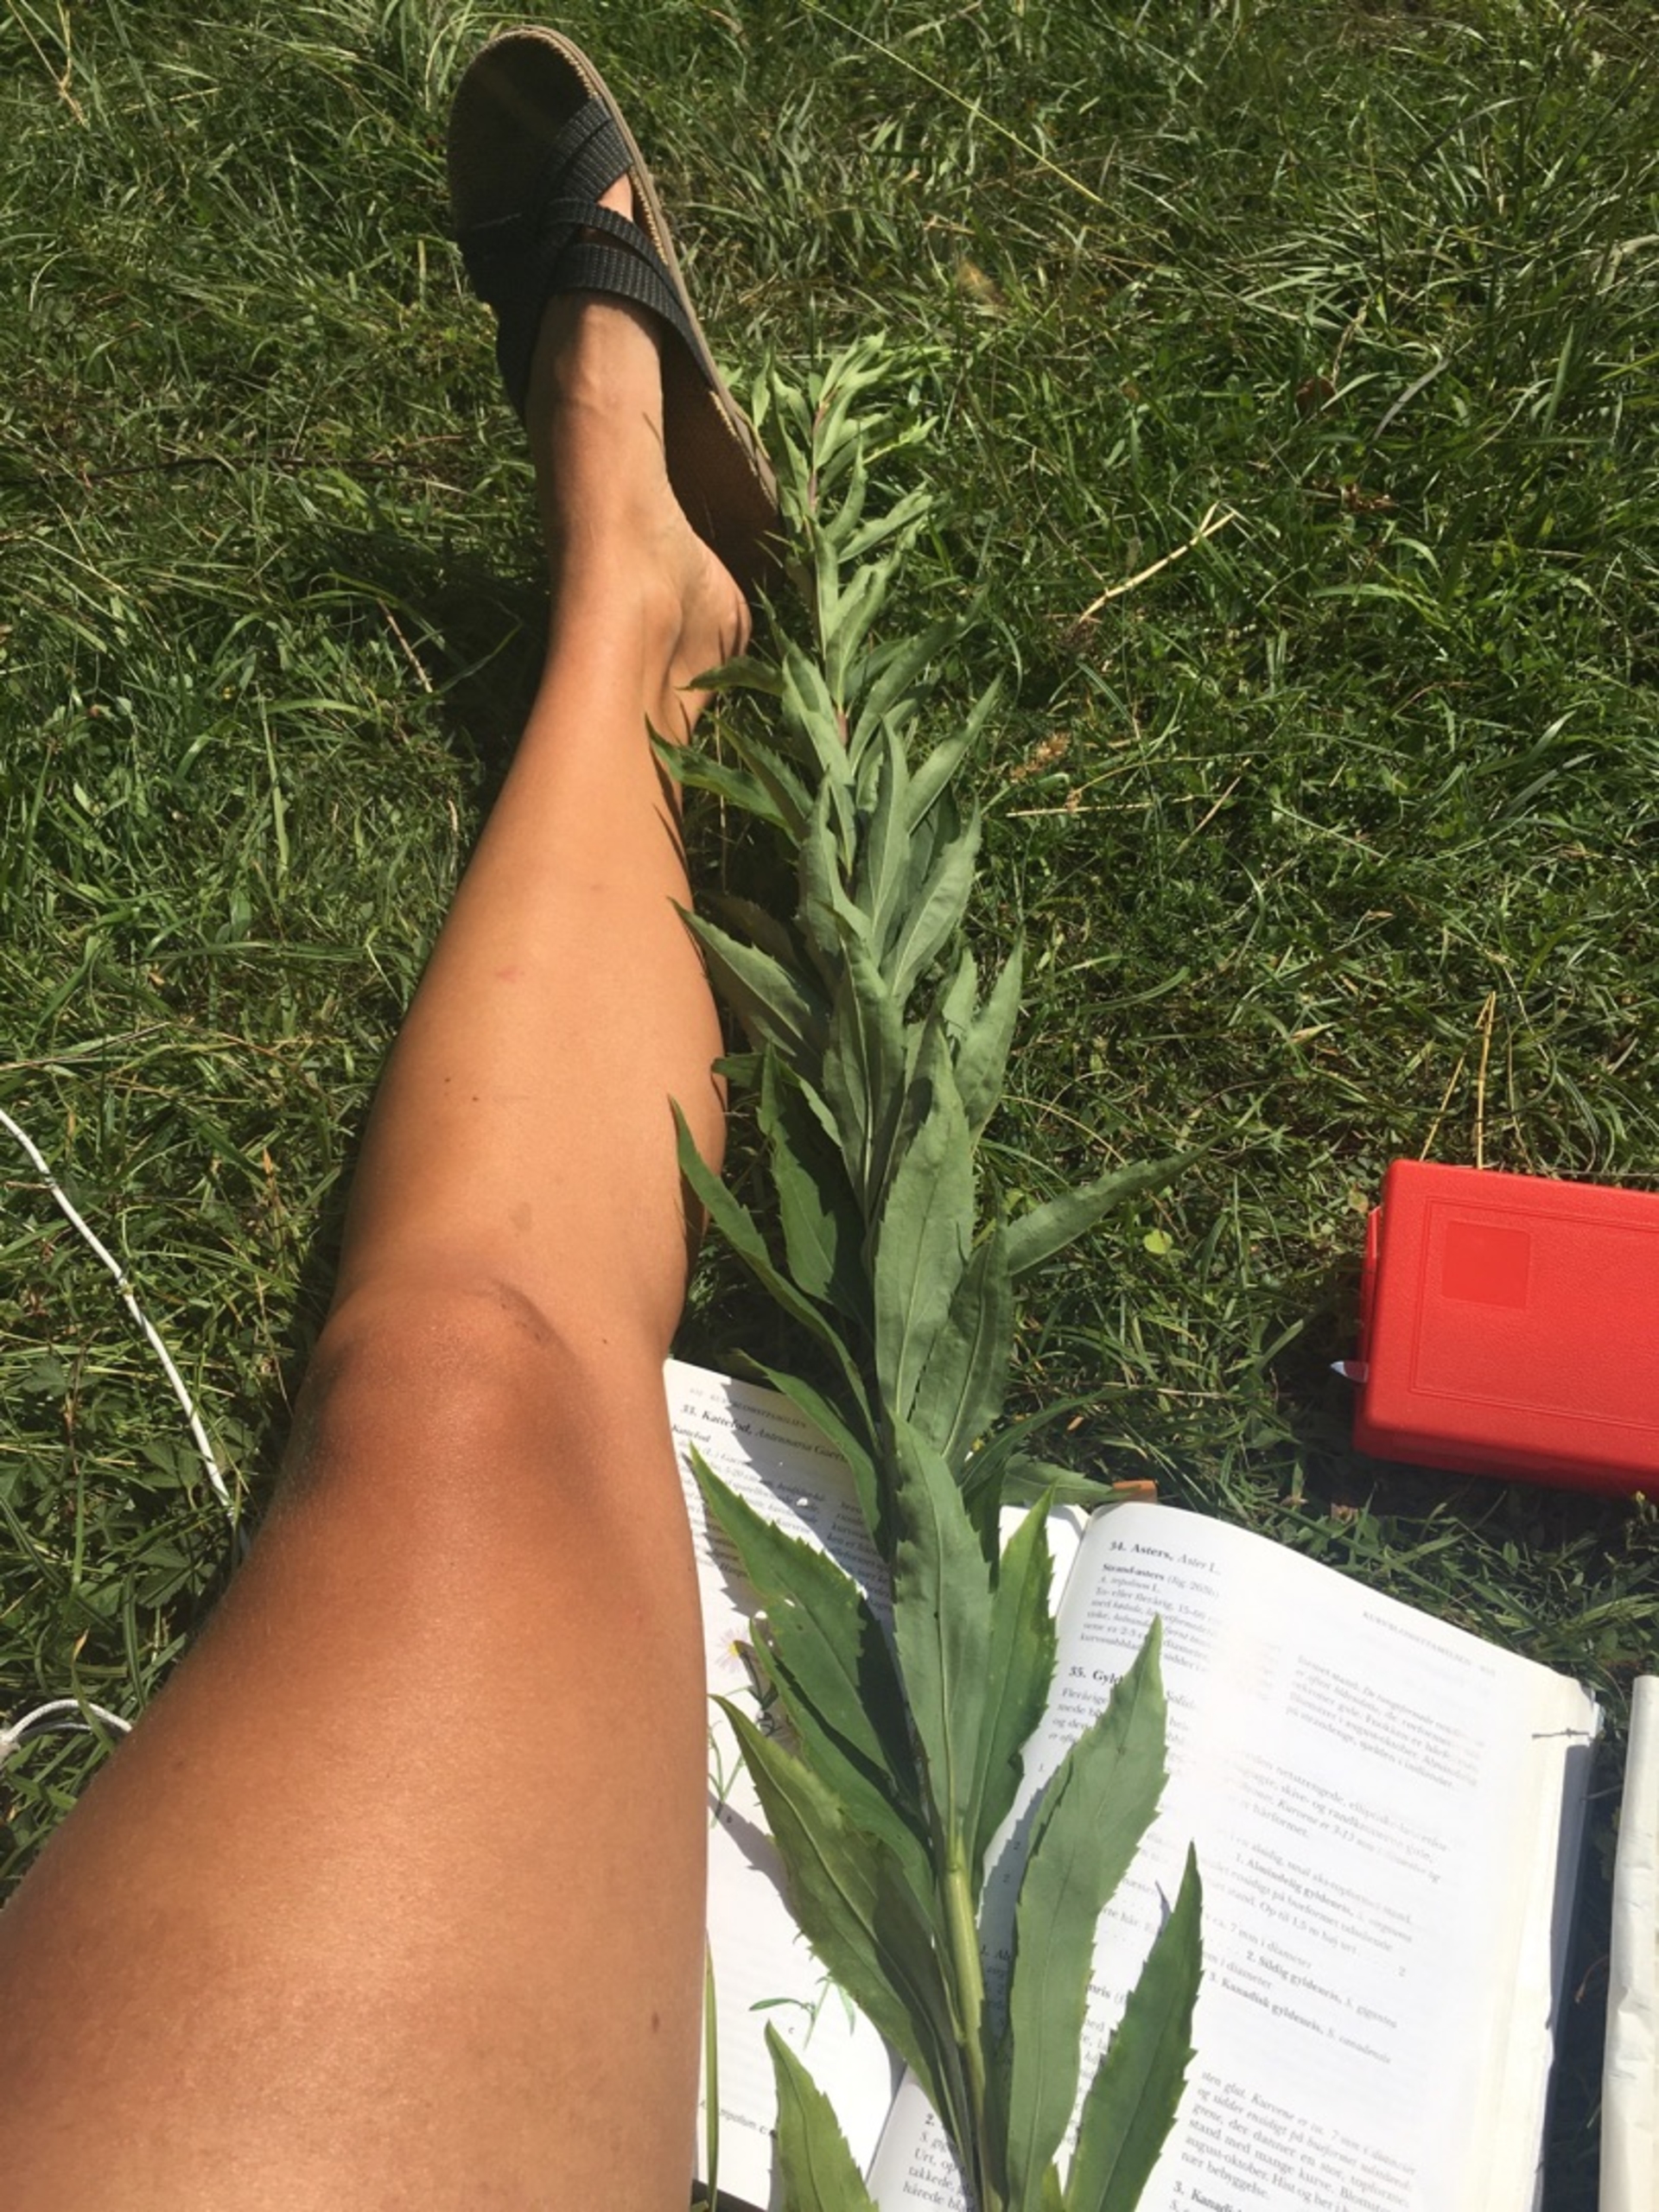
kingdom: Plantae
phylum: Tracheophyta
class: Magnoliopsida
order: Asterales
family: Asteraceae
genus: Solidago
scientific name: Solidago gigantea
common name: Sildig gyldenris
